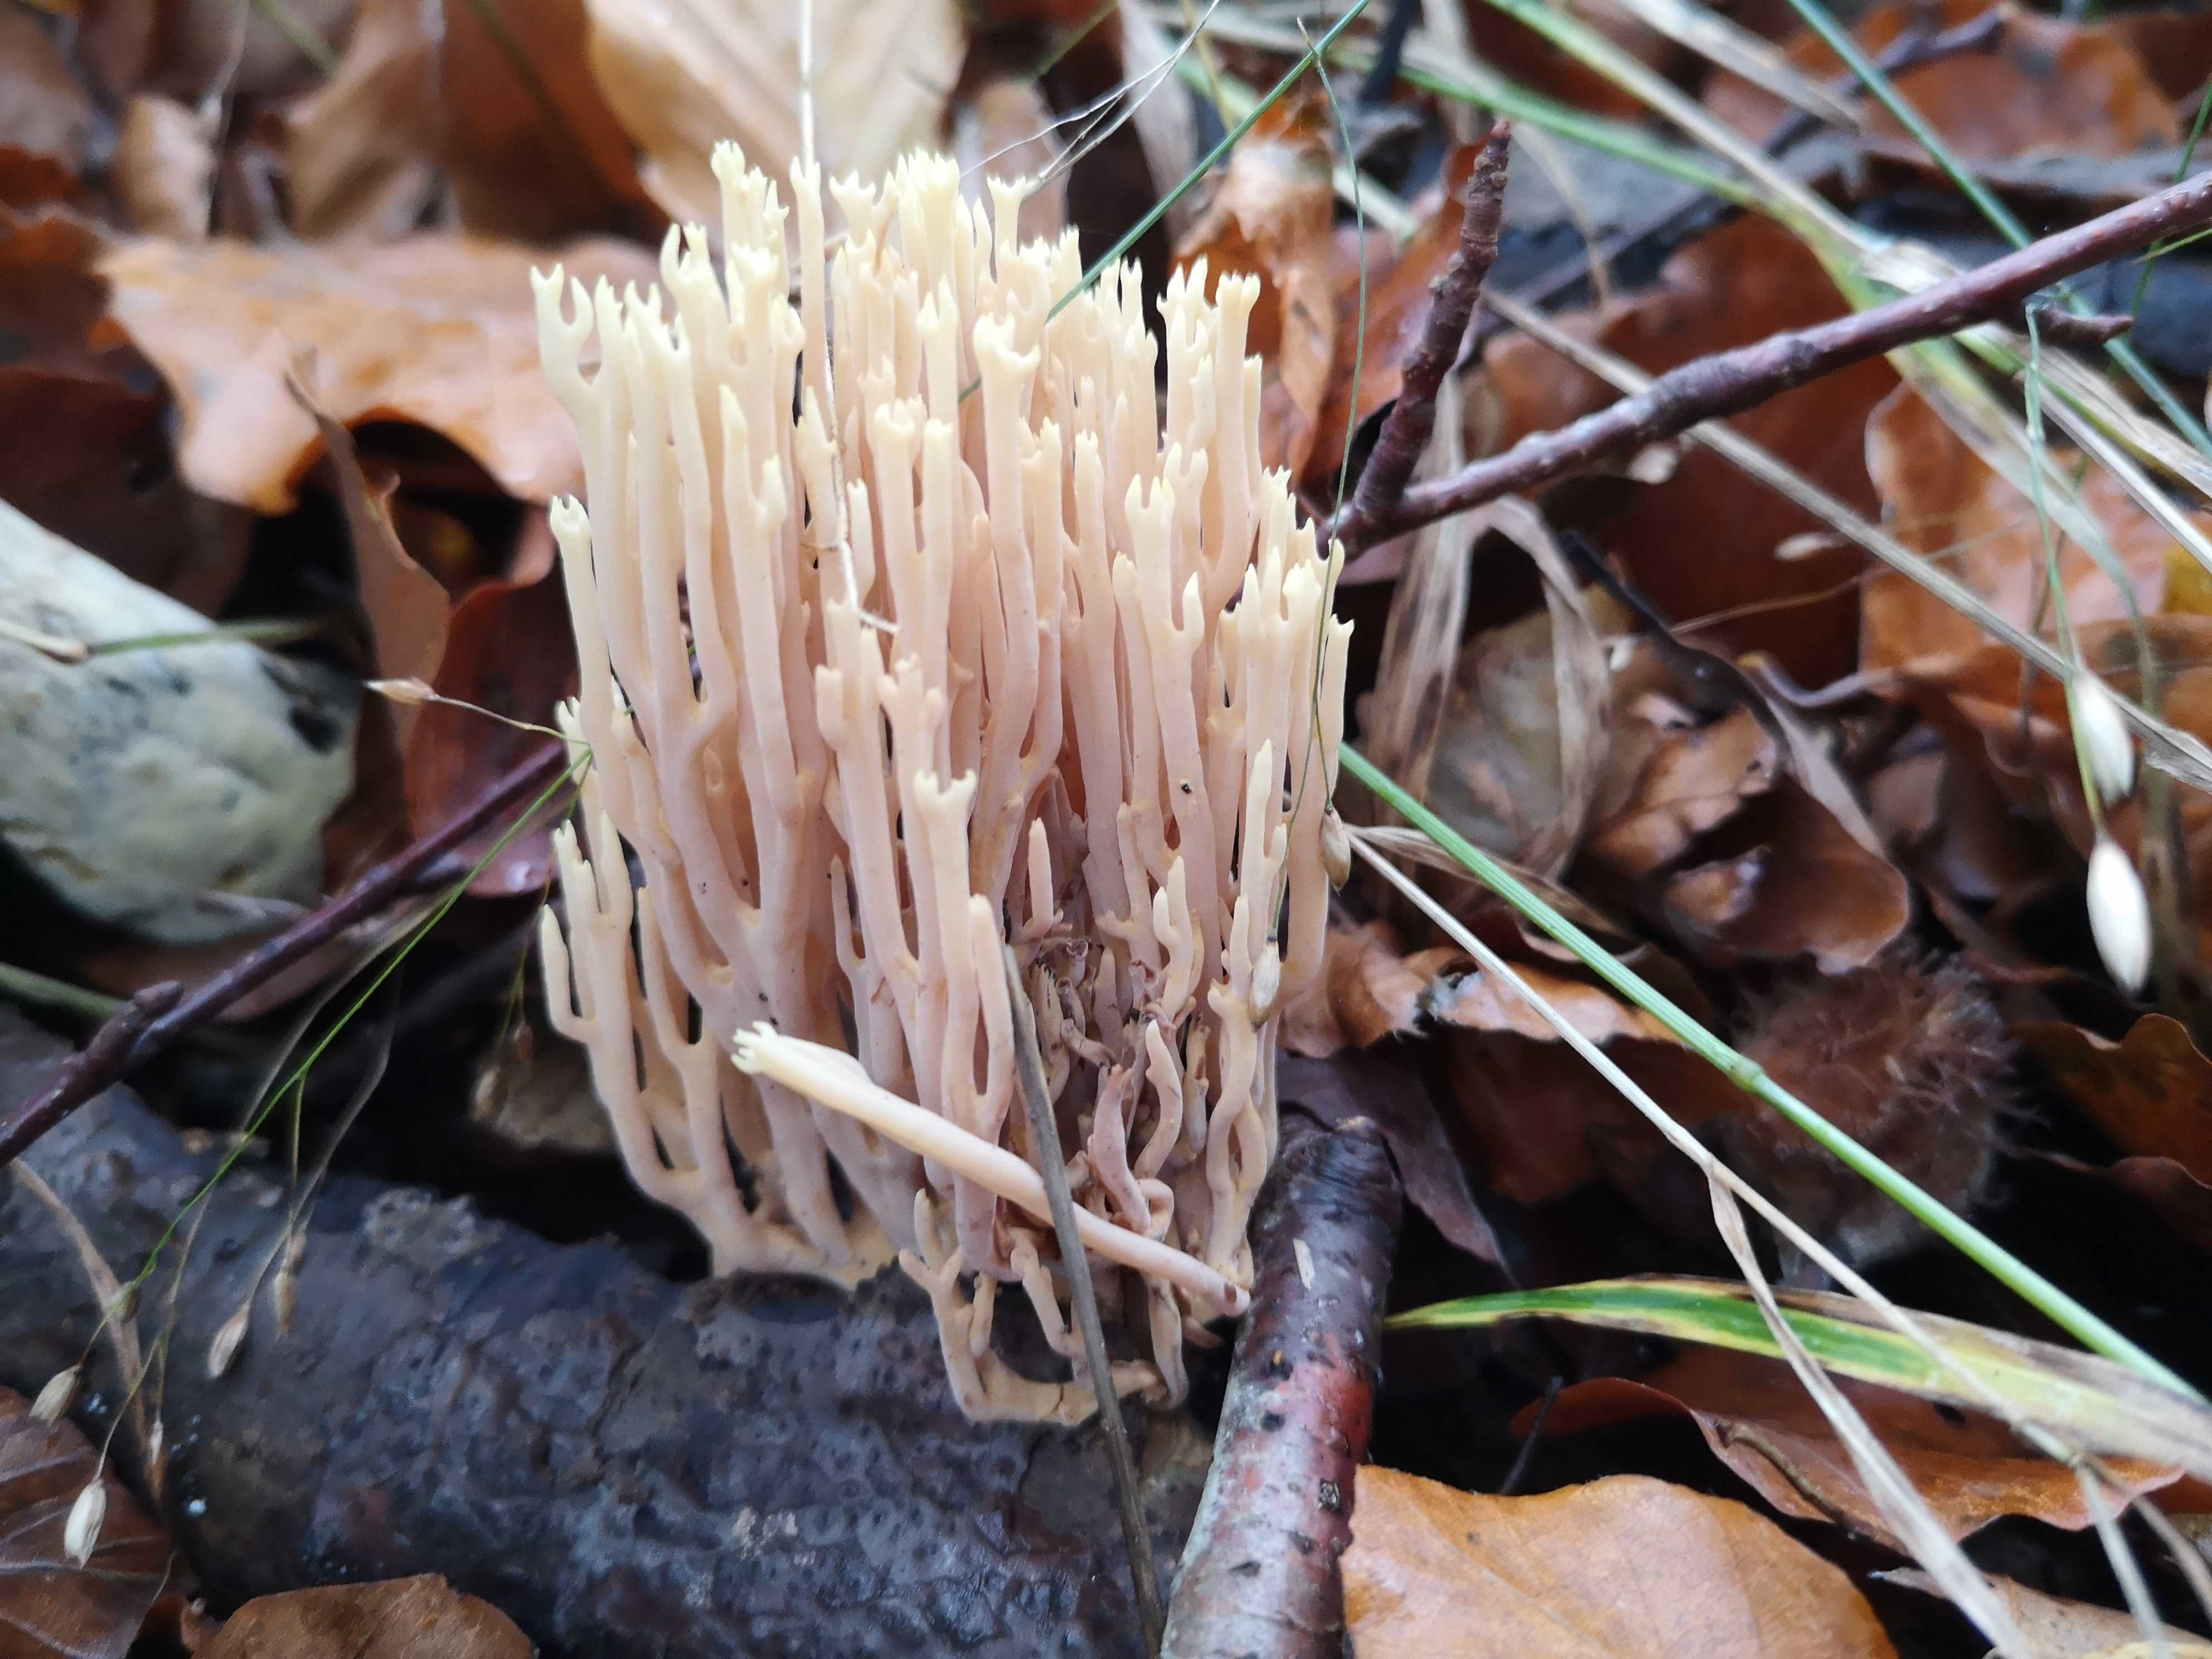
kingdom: Fungi
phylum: Basidiomycota
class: Agaricomycetes
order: Gomphales
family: Gomphaceae
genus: Ramaria
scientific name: Ramaria stricta
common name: rank koralsvamp
